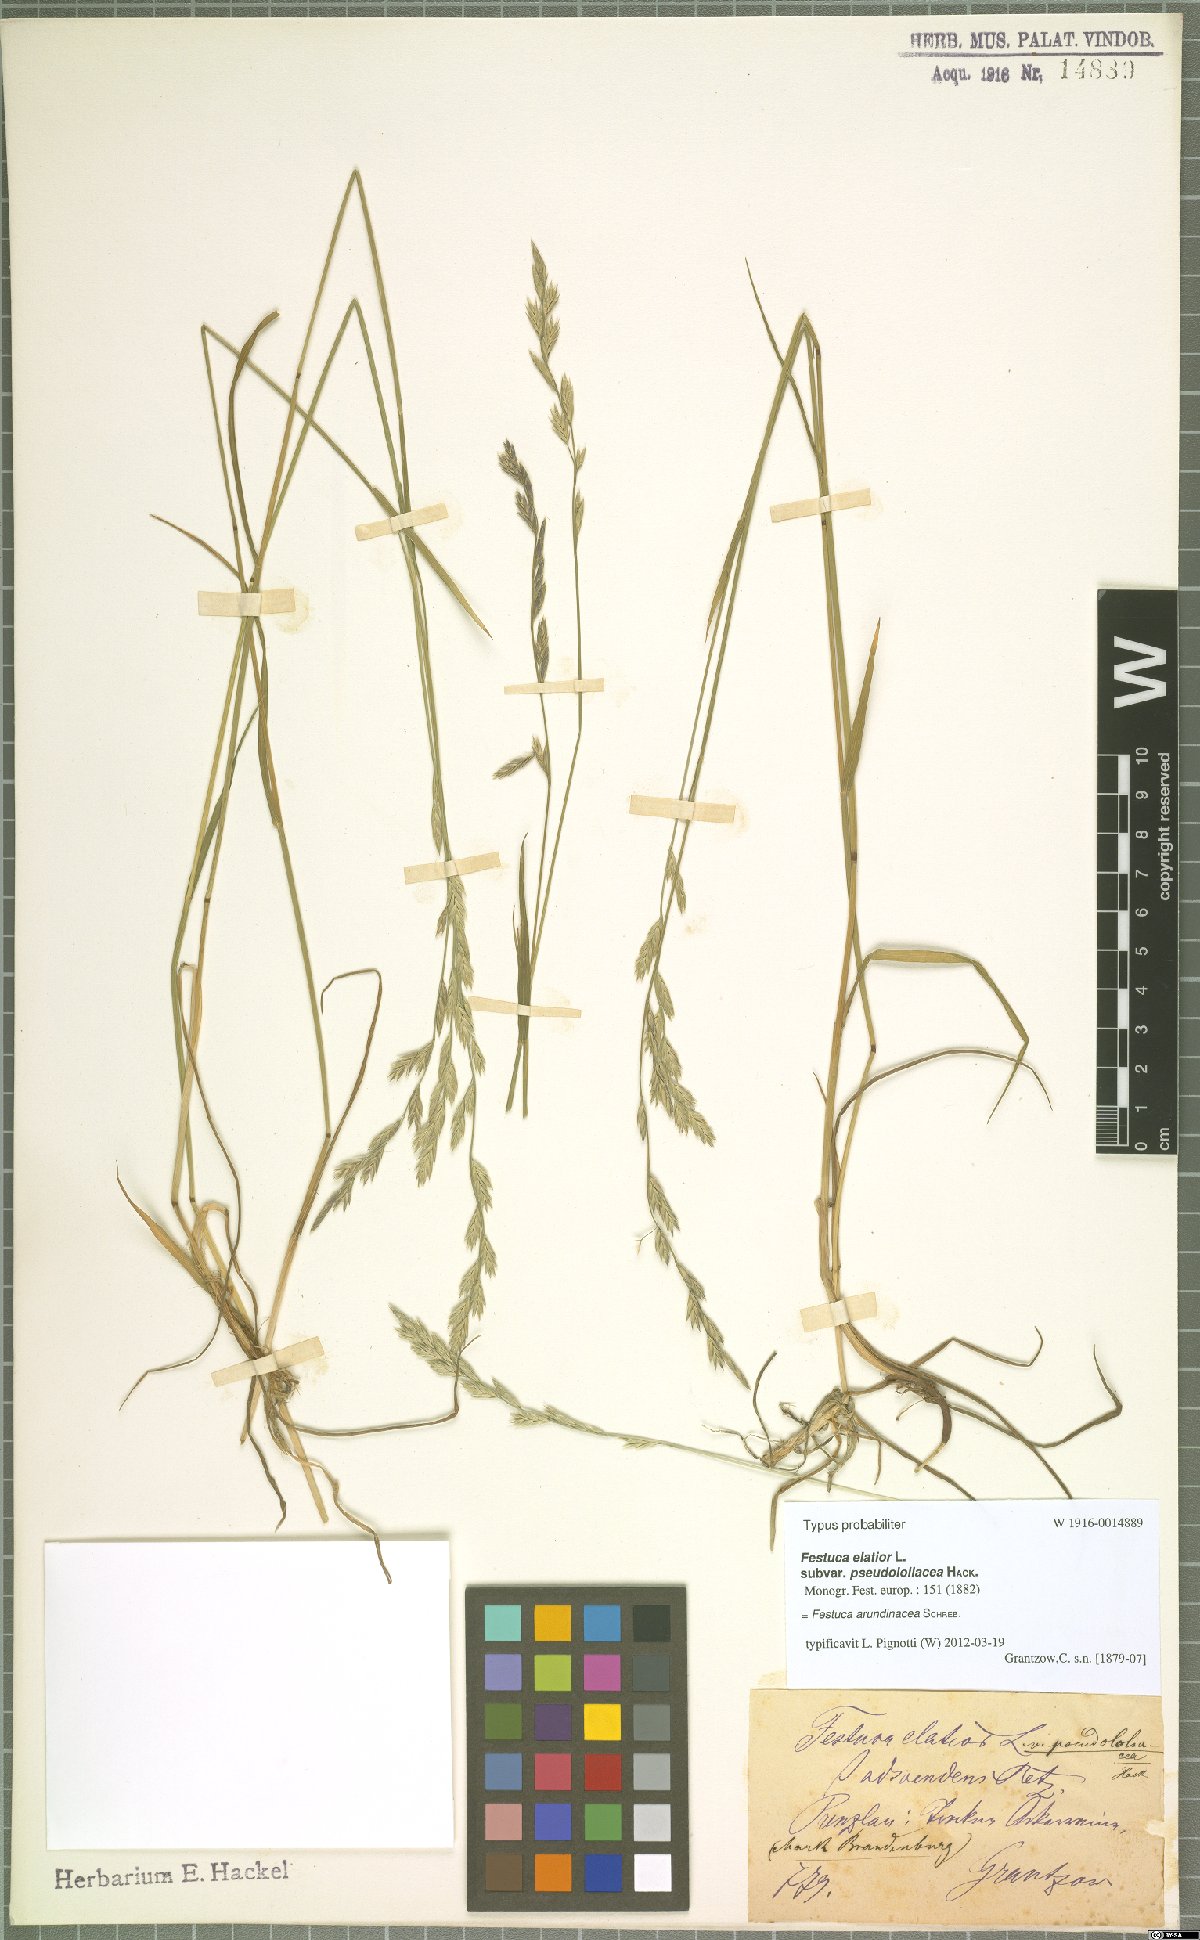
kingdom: Plantae
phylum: Tracheophyta
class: Liliopsida
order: Poales
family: Poaceae
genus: Lolium
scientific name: Lolium arundinaceum
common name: Reed fescue
